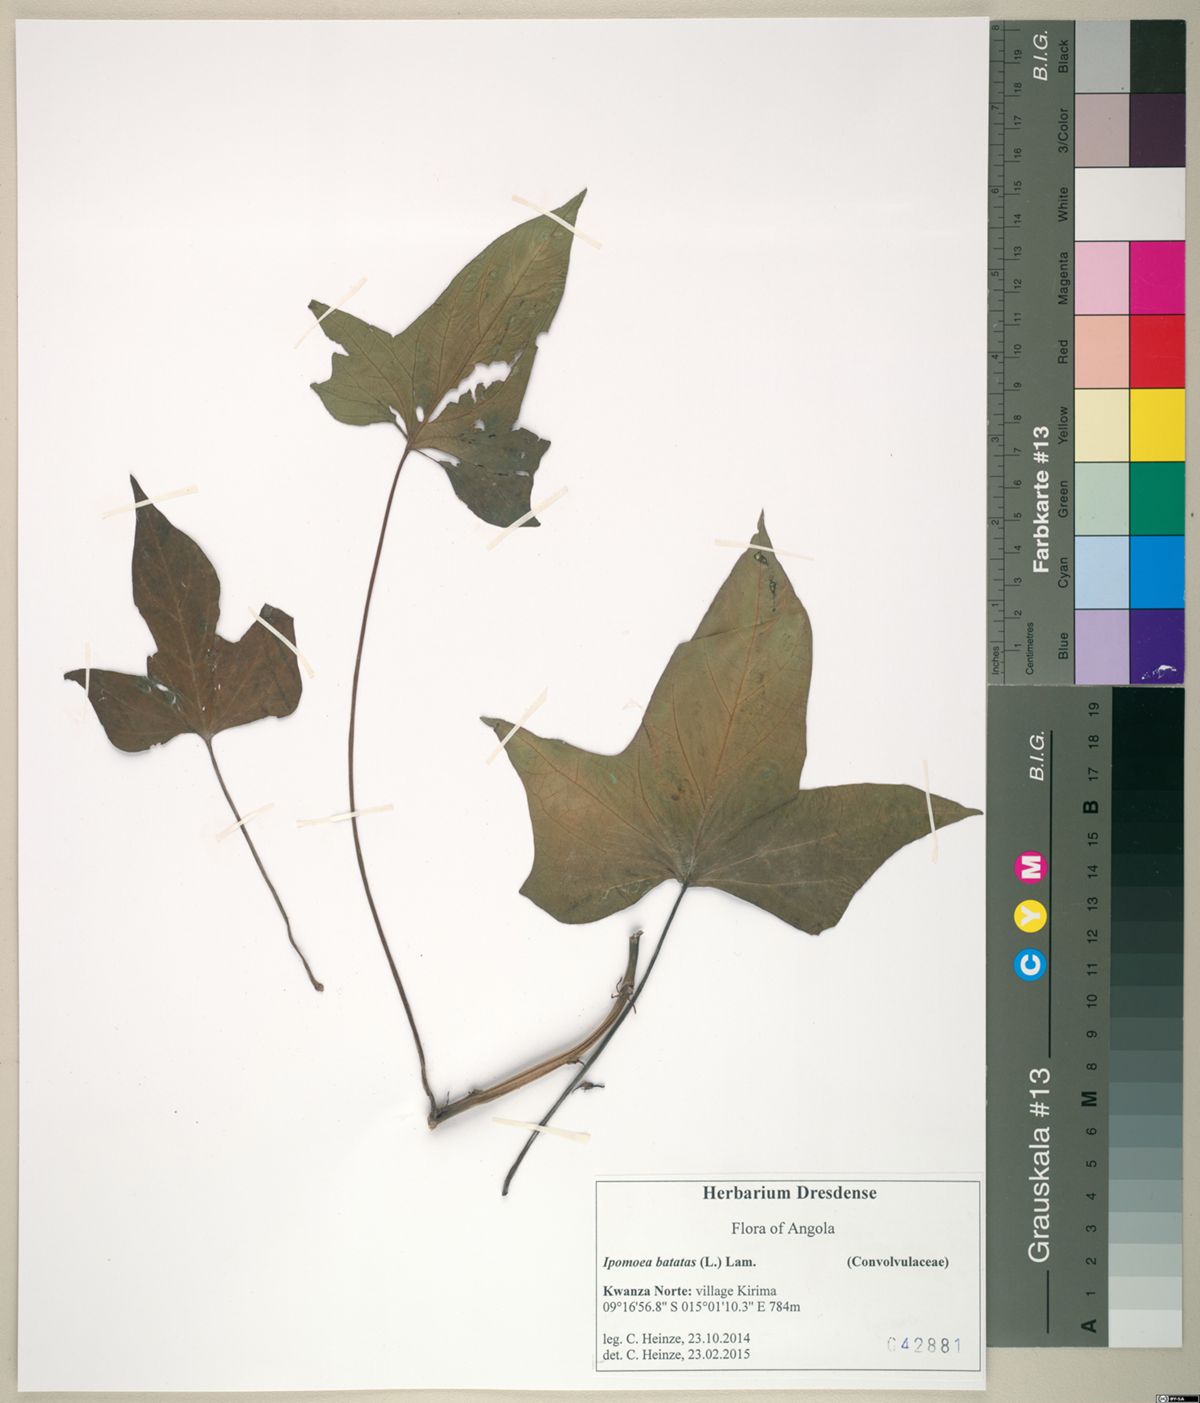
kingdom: Plantae
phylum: Tracheophyta
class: Magnoliopsida
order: Solanales
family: Convolvulaceae
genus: Ipomoea
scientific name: Ipomoea batatas
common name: Sweet-potato
